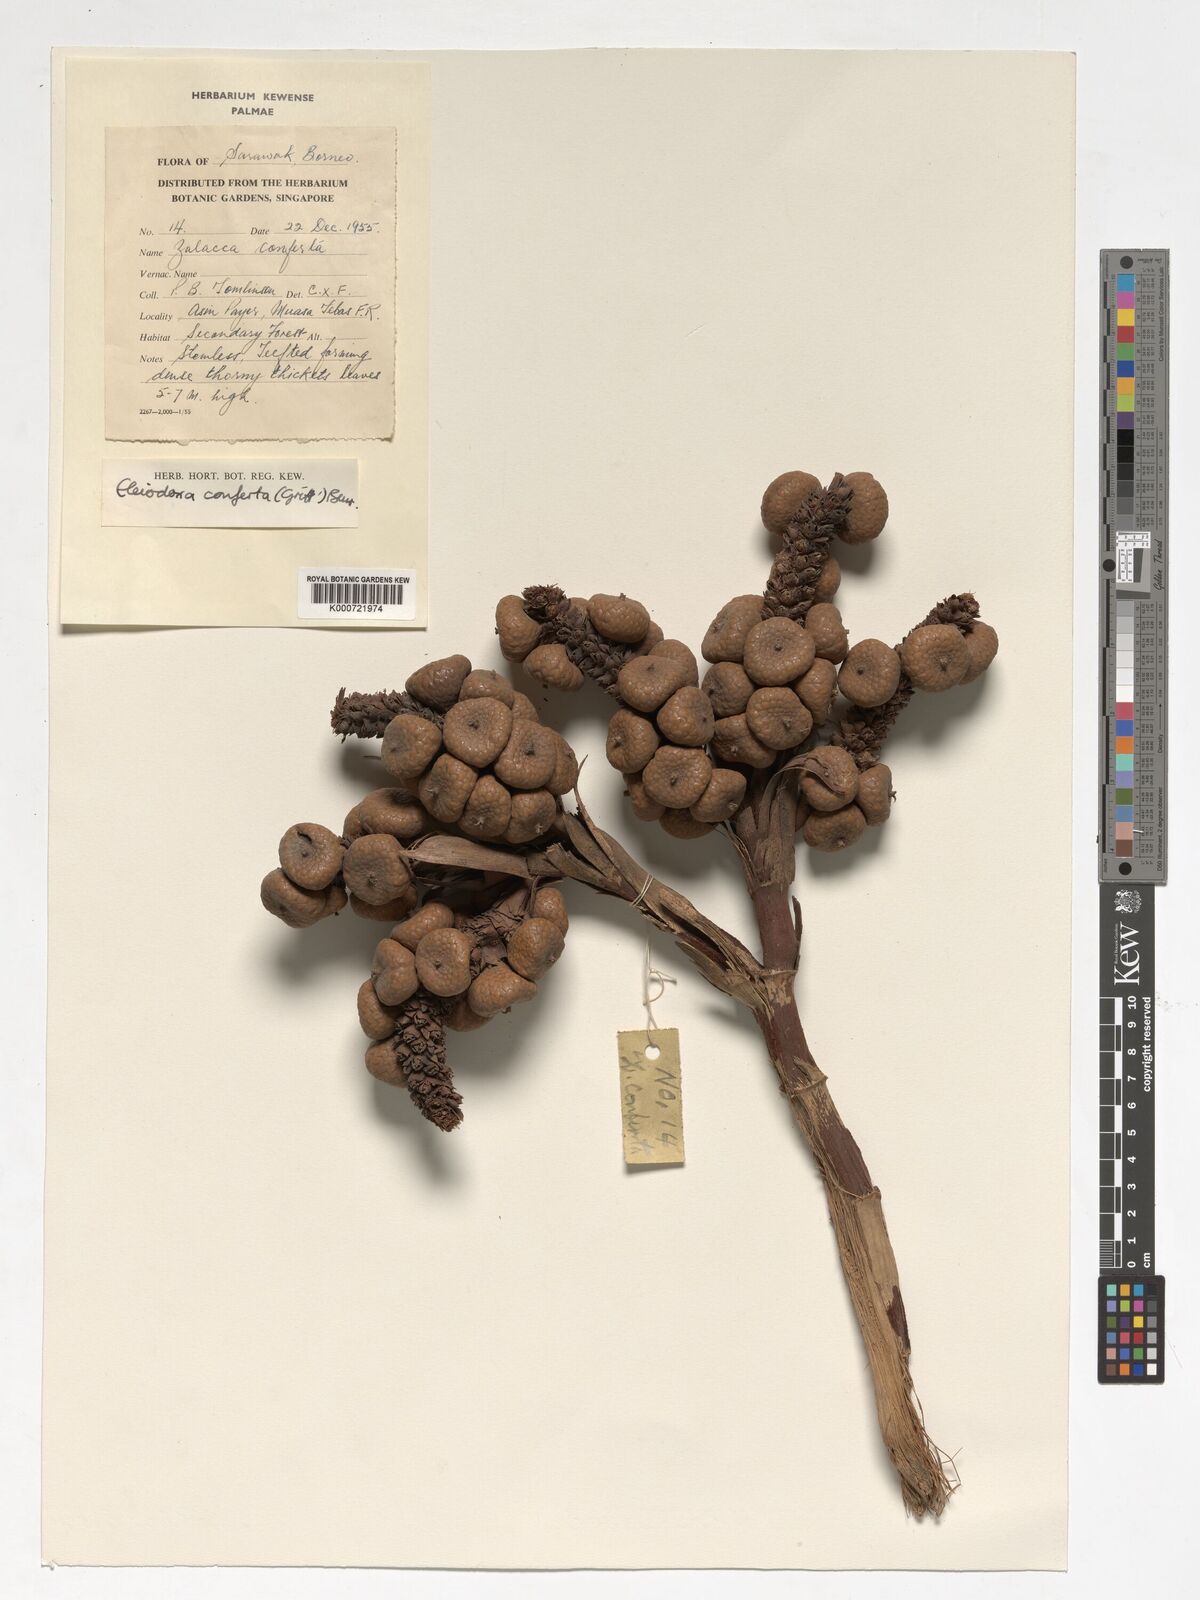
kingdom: Plantae
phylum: Tracheophyta
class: Liliopsida
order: Arecales
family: Arecaceae
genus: Eleiodoxa
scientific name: Eleiodoxa conferta
